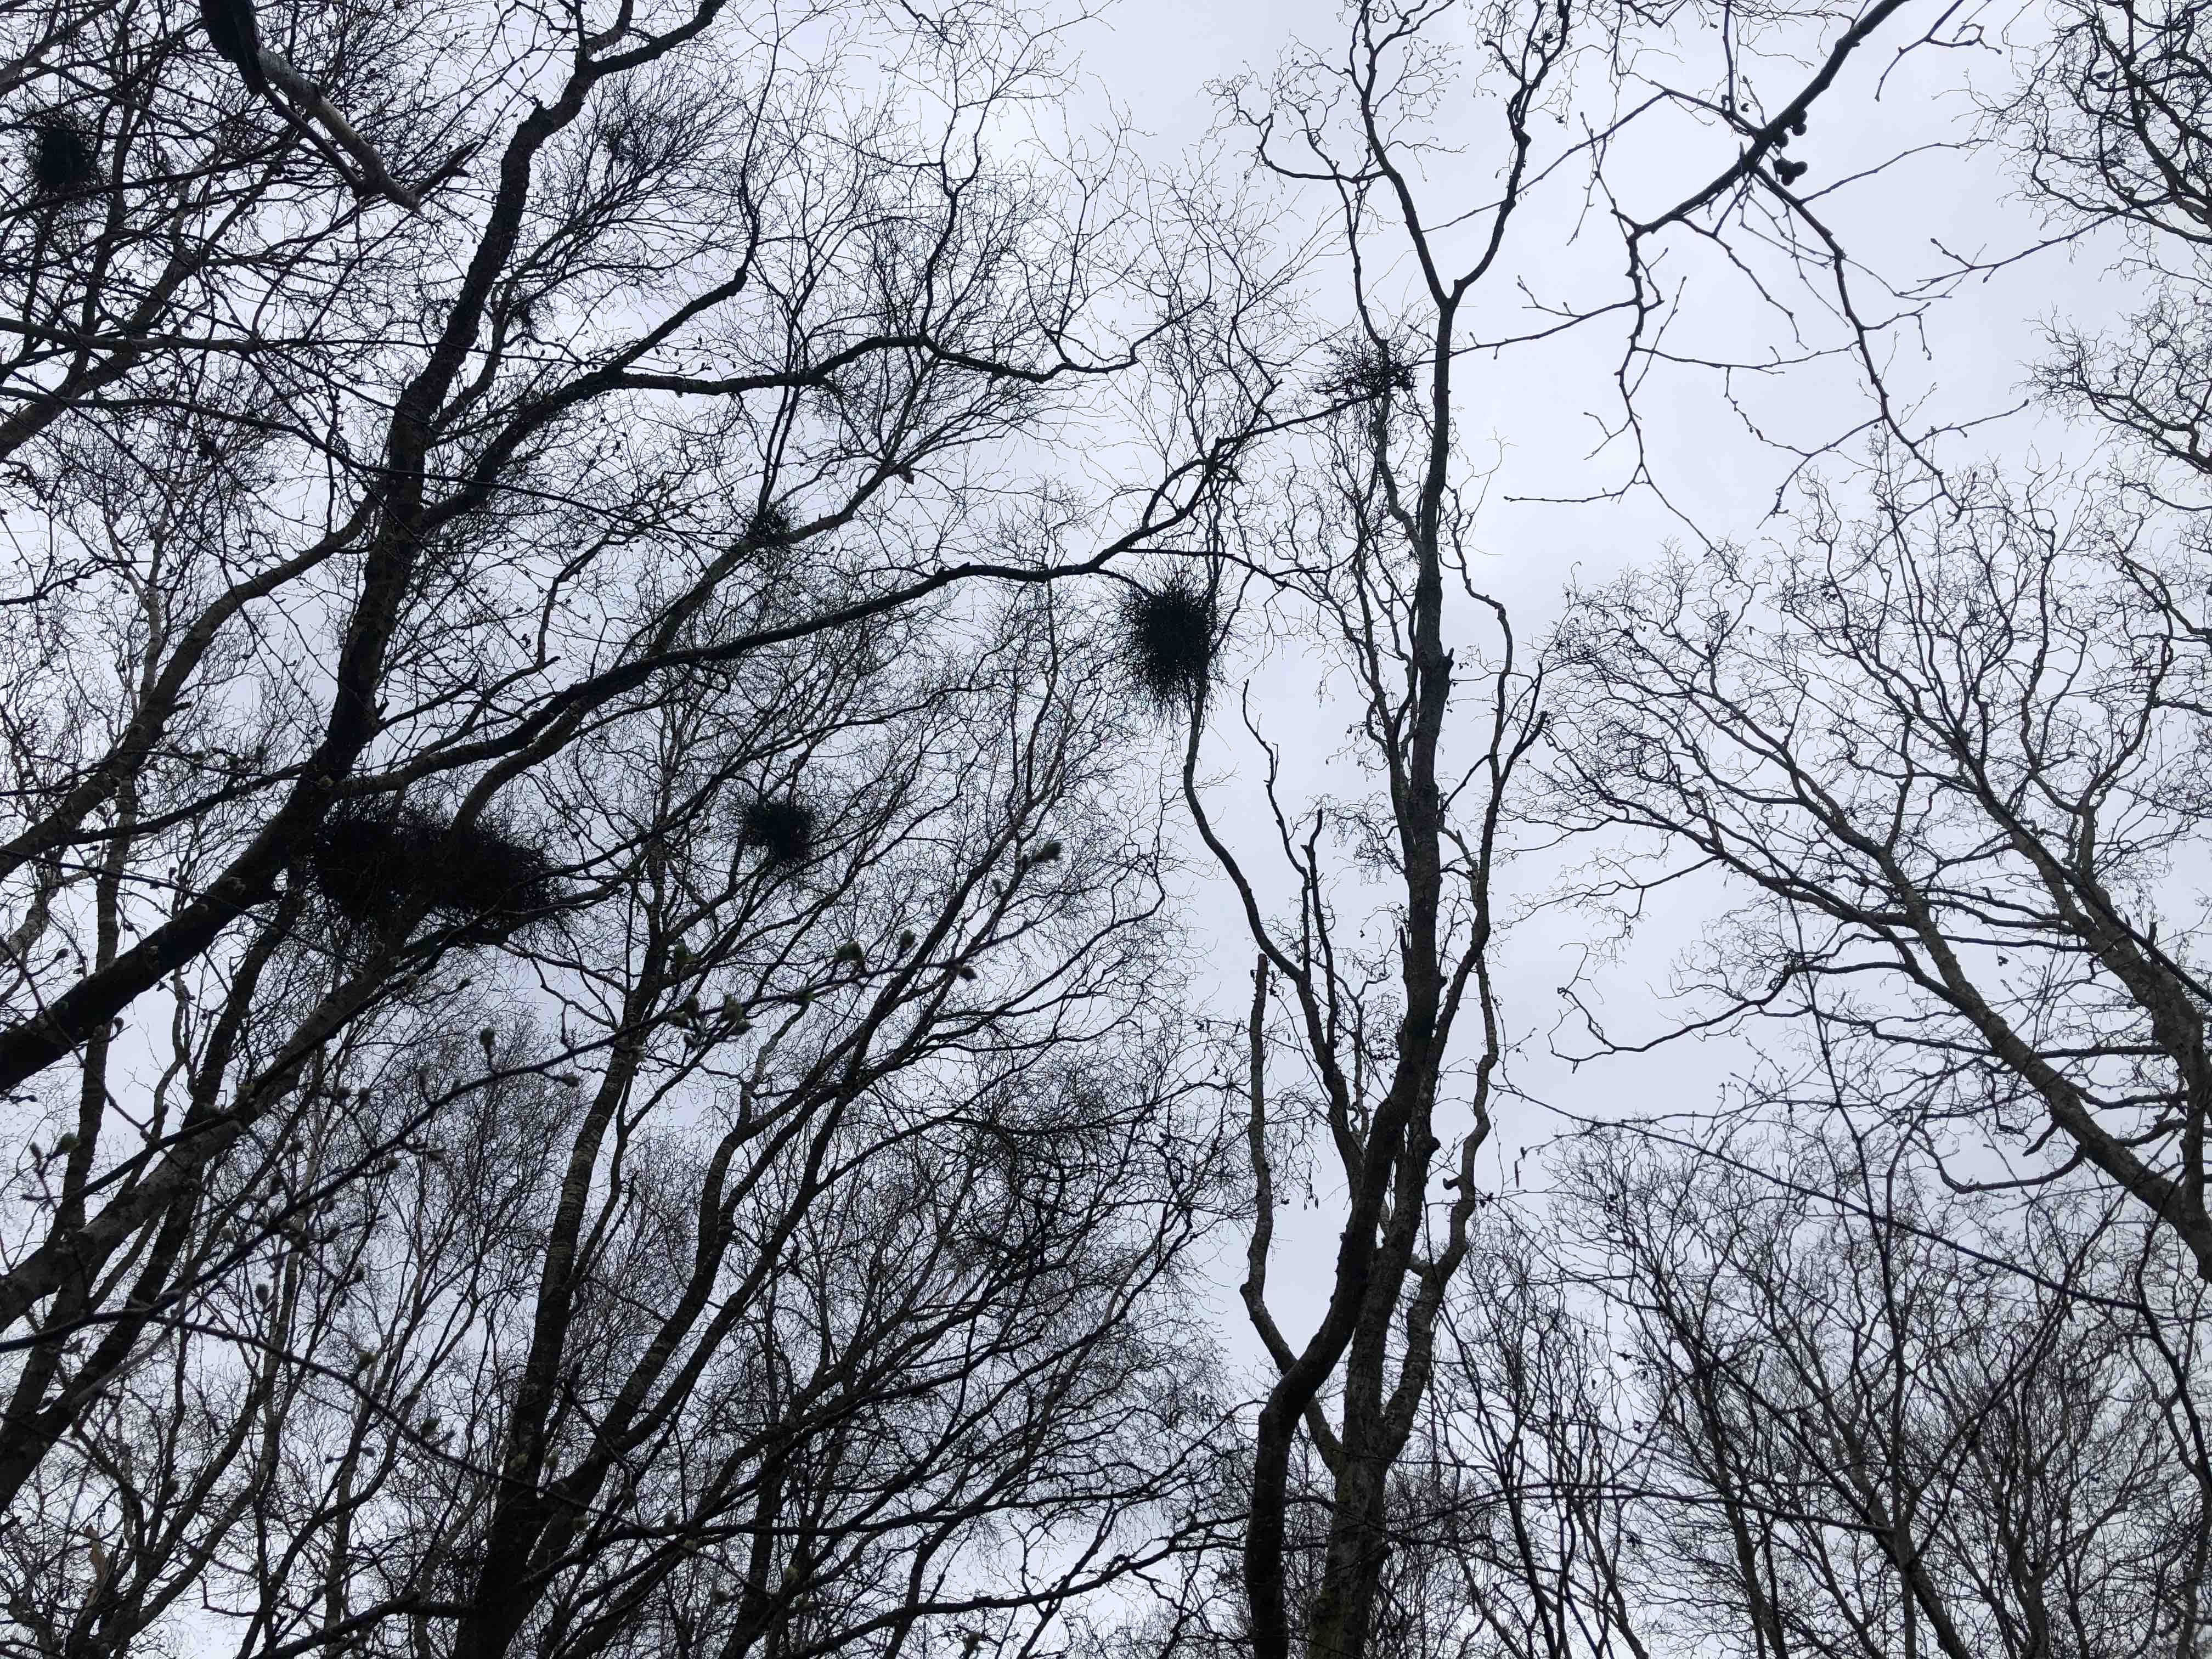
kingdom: Fungi
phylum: Ascomycota
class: Taphrinomycetes
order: Taphrinales
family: Taphrinaceae
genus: Taphrina
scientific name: Taphrina betulina
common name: hekse-sækdug
